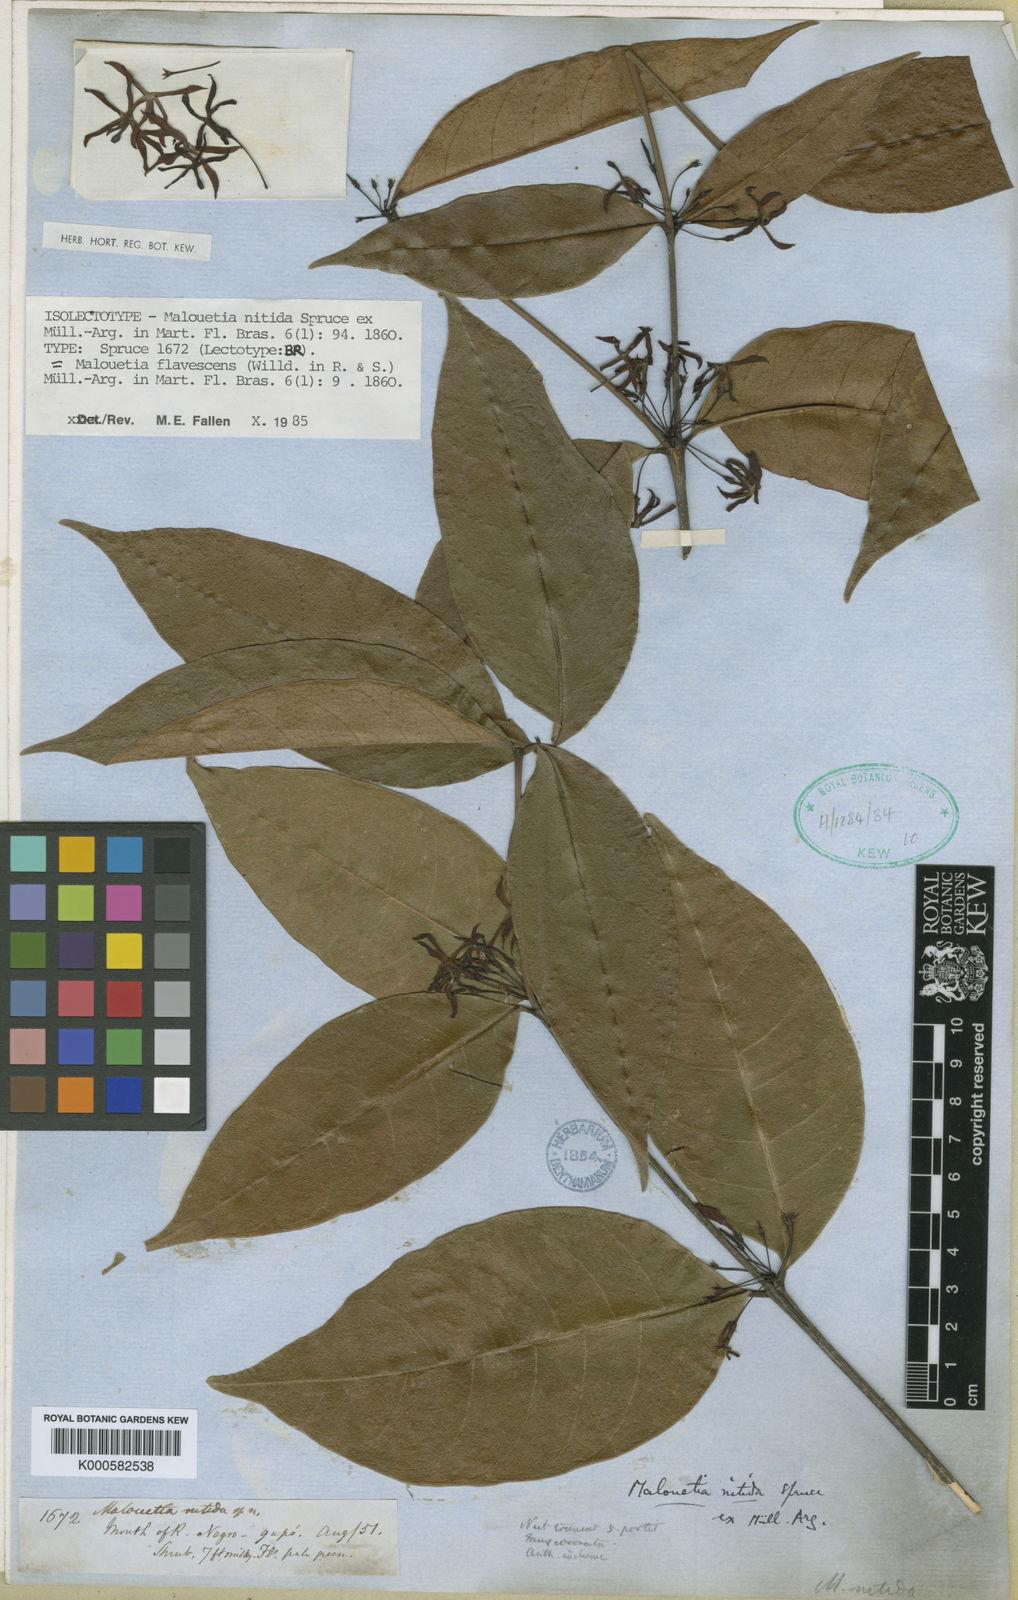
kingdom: Plantae
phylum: Tracheophyta
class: Magnoliopsida
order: Gentianales
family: Apocynaceae
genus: Malouetia
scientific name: Malouetia
